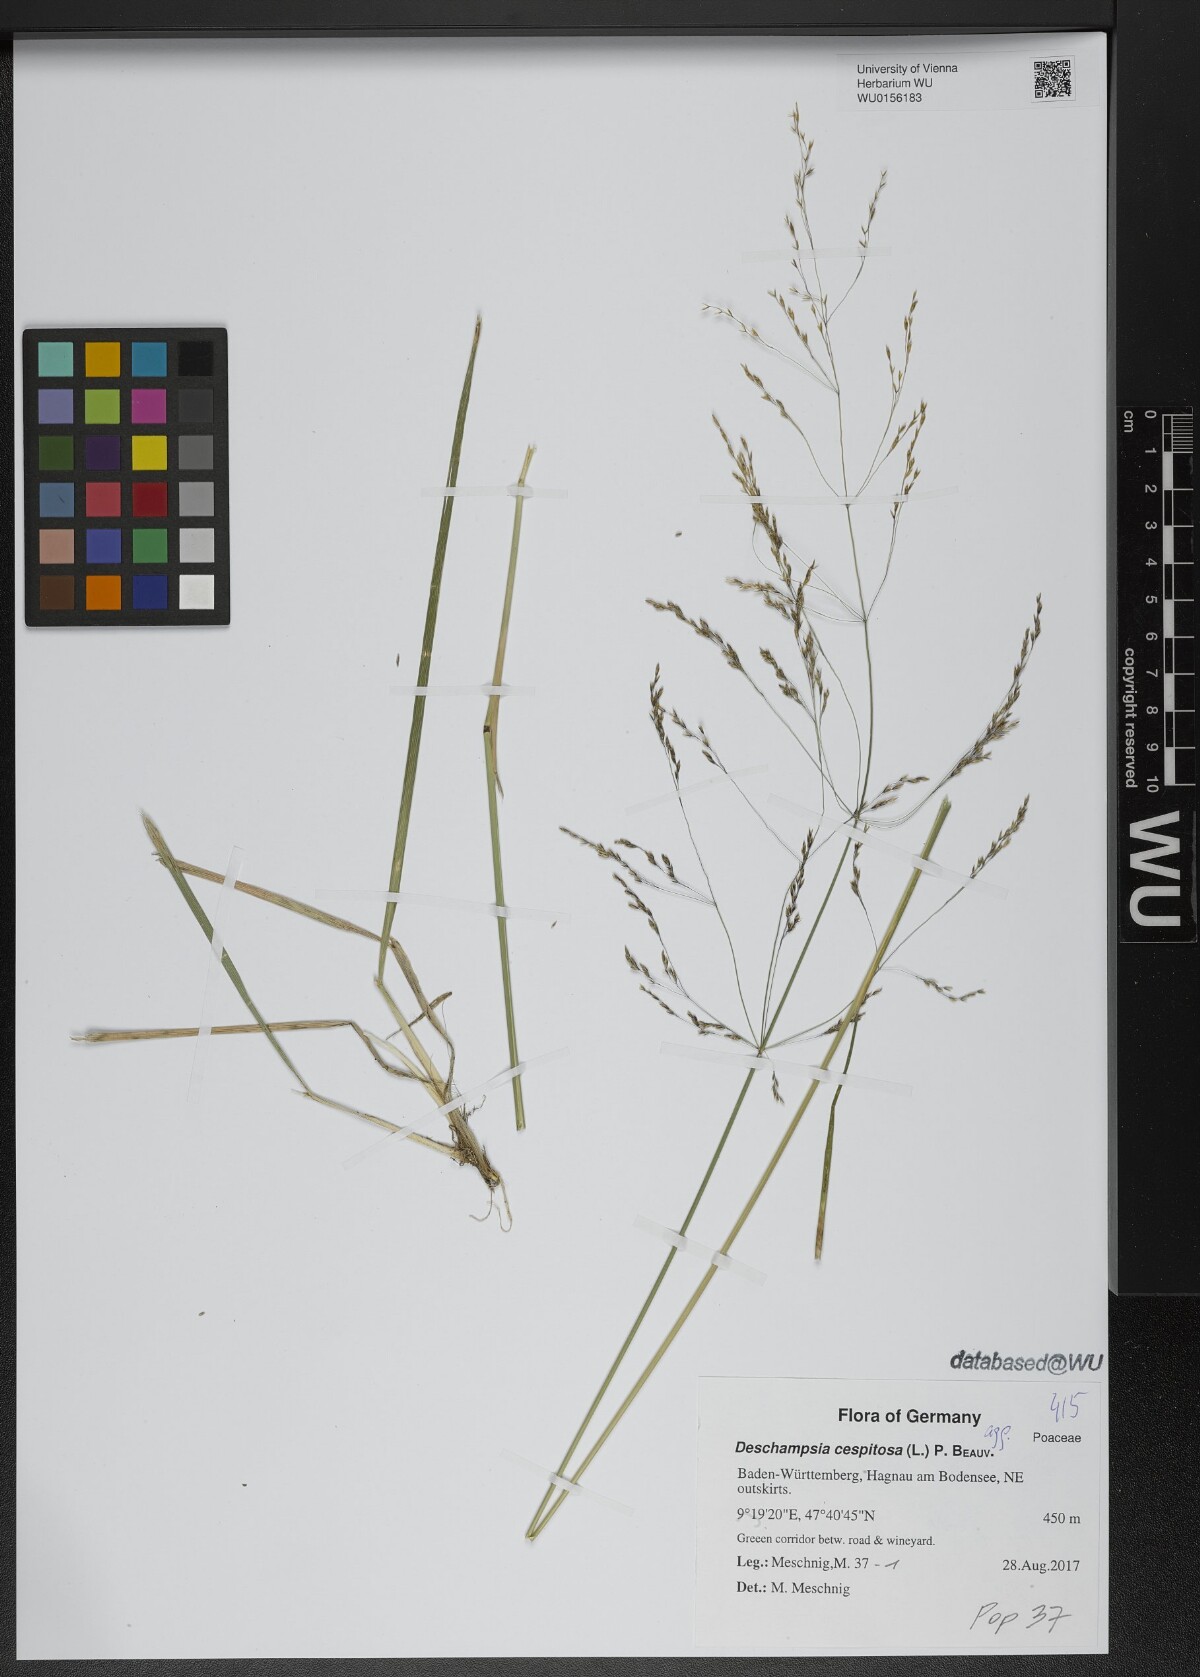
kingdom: Plantae
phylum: Tracheophyta
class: Liliopsida
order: Poales
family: Poaceae
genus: Deschampsia
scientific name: Deschampsia cespitosa
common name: Tufted hair-grass
